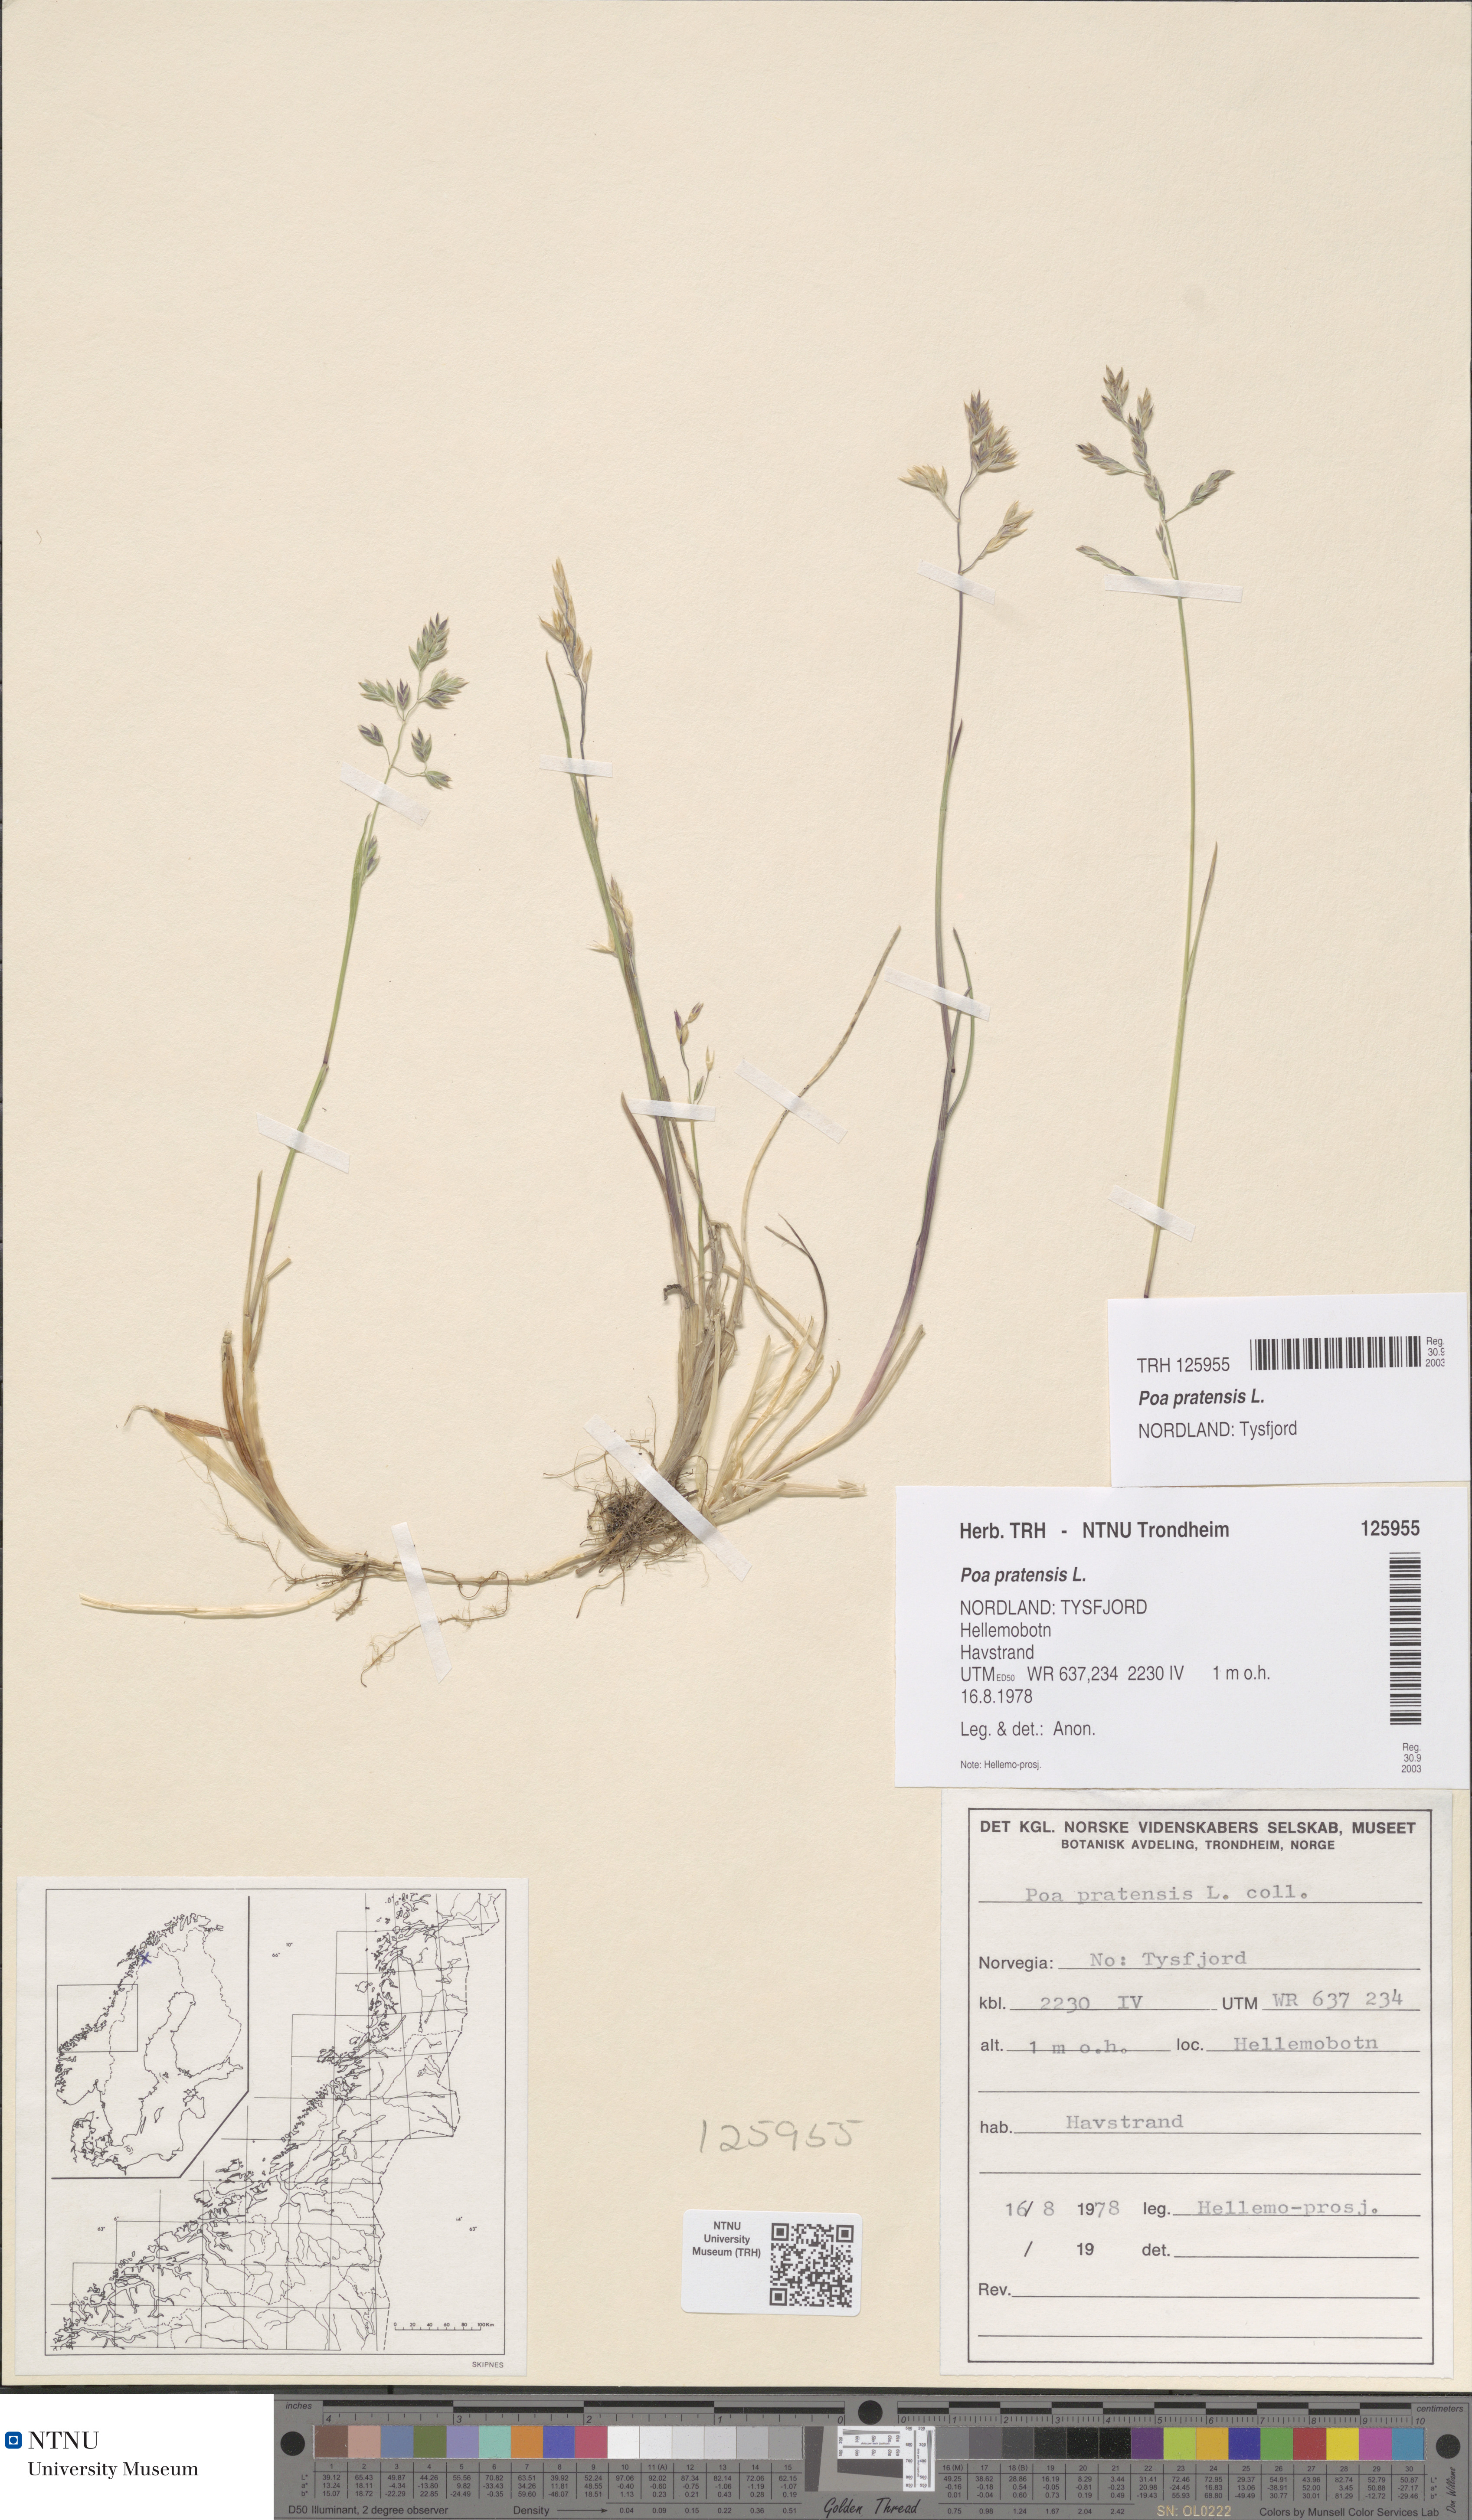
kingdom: Plantae
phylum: Tracheophyta
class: Liliopsida
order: Poales
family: Poaceae
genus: Poa
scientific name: Poa pratensis
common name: Kentucky bluegrass
